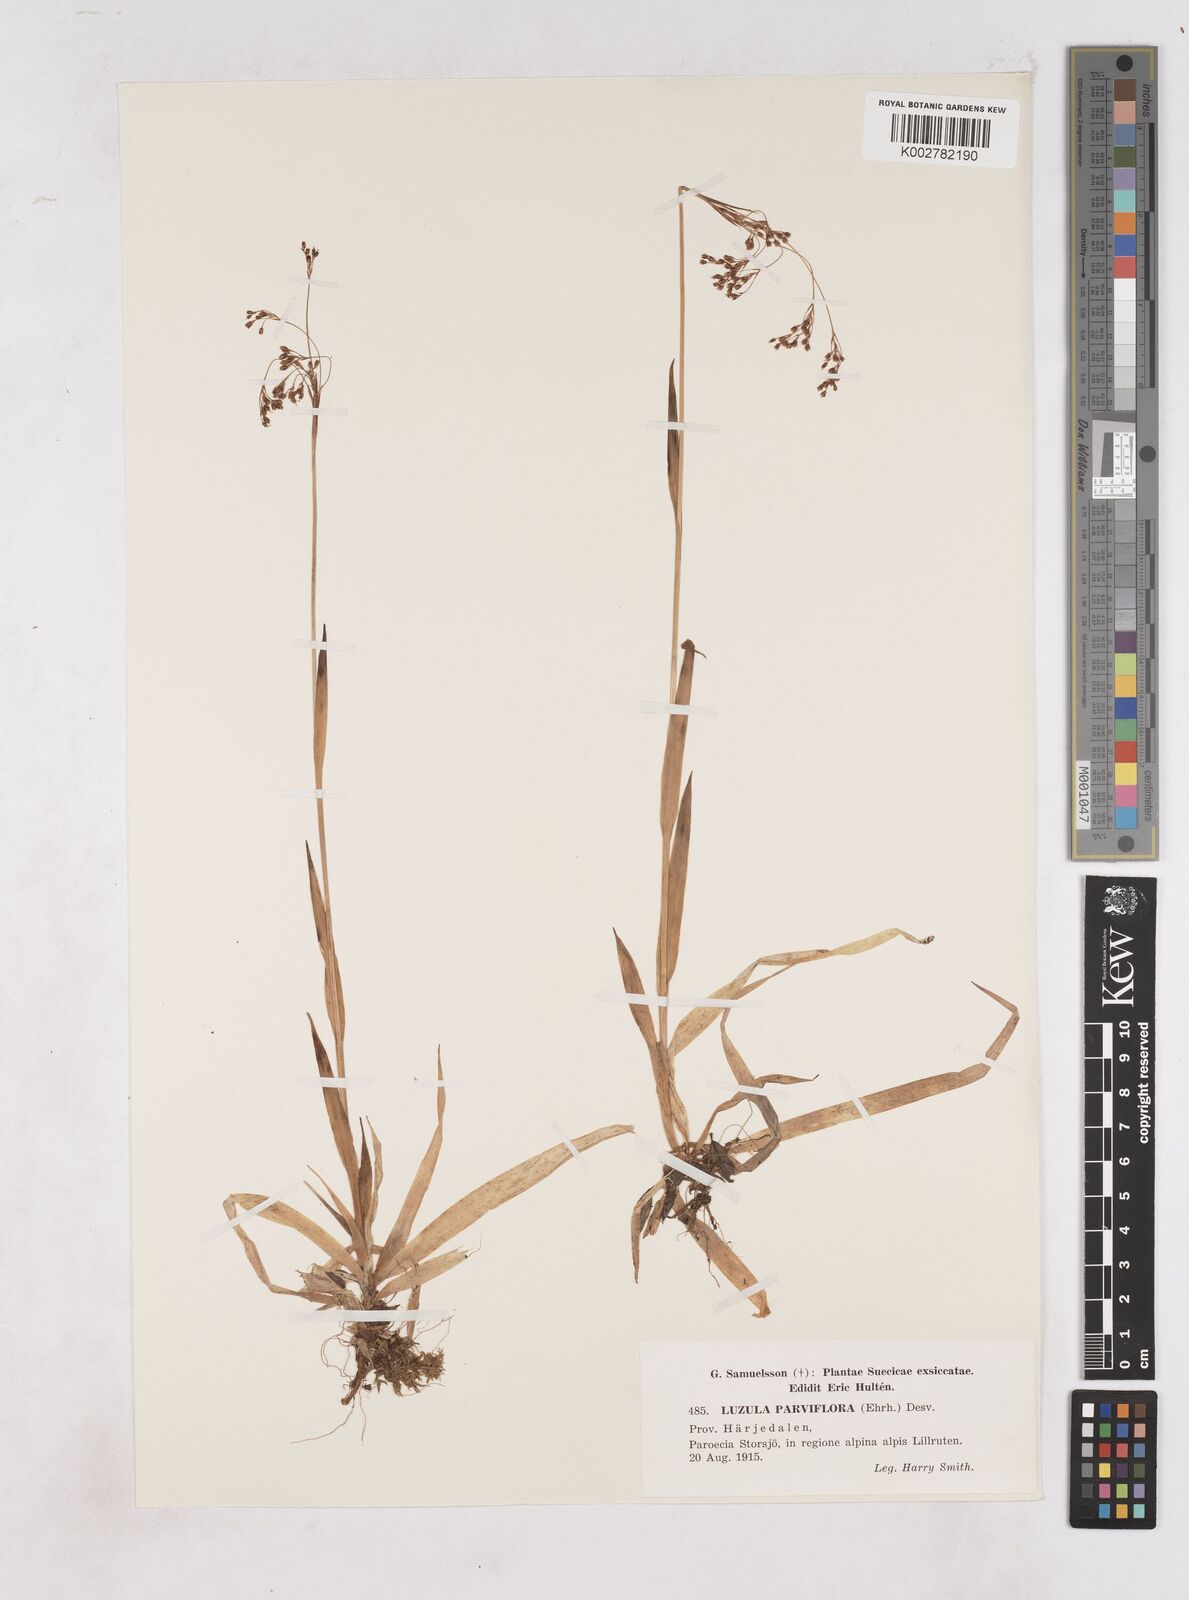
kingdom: Plantae
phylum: Tracheophyta
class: Liliopsida
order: Poales
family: Juncaceae
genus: Luzula
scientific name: Luzula parviflora
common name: Millet woodrush
